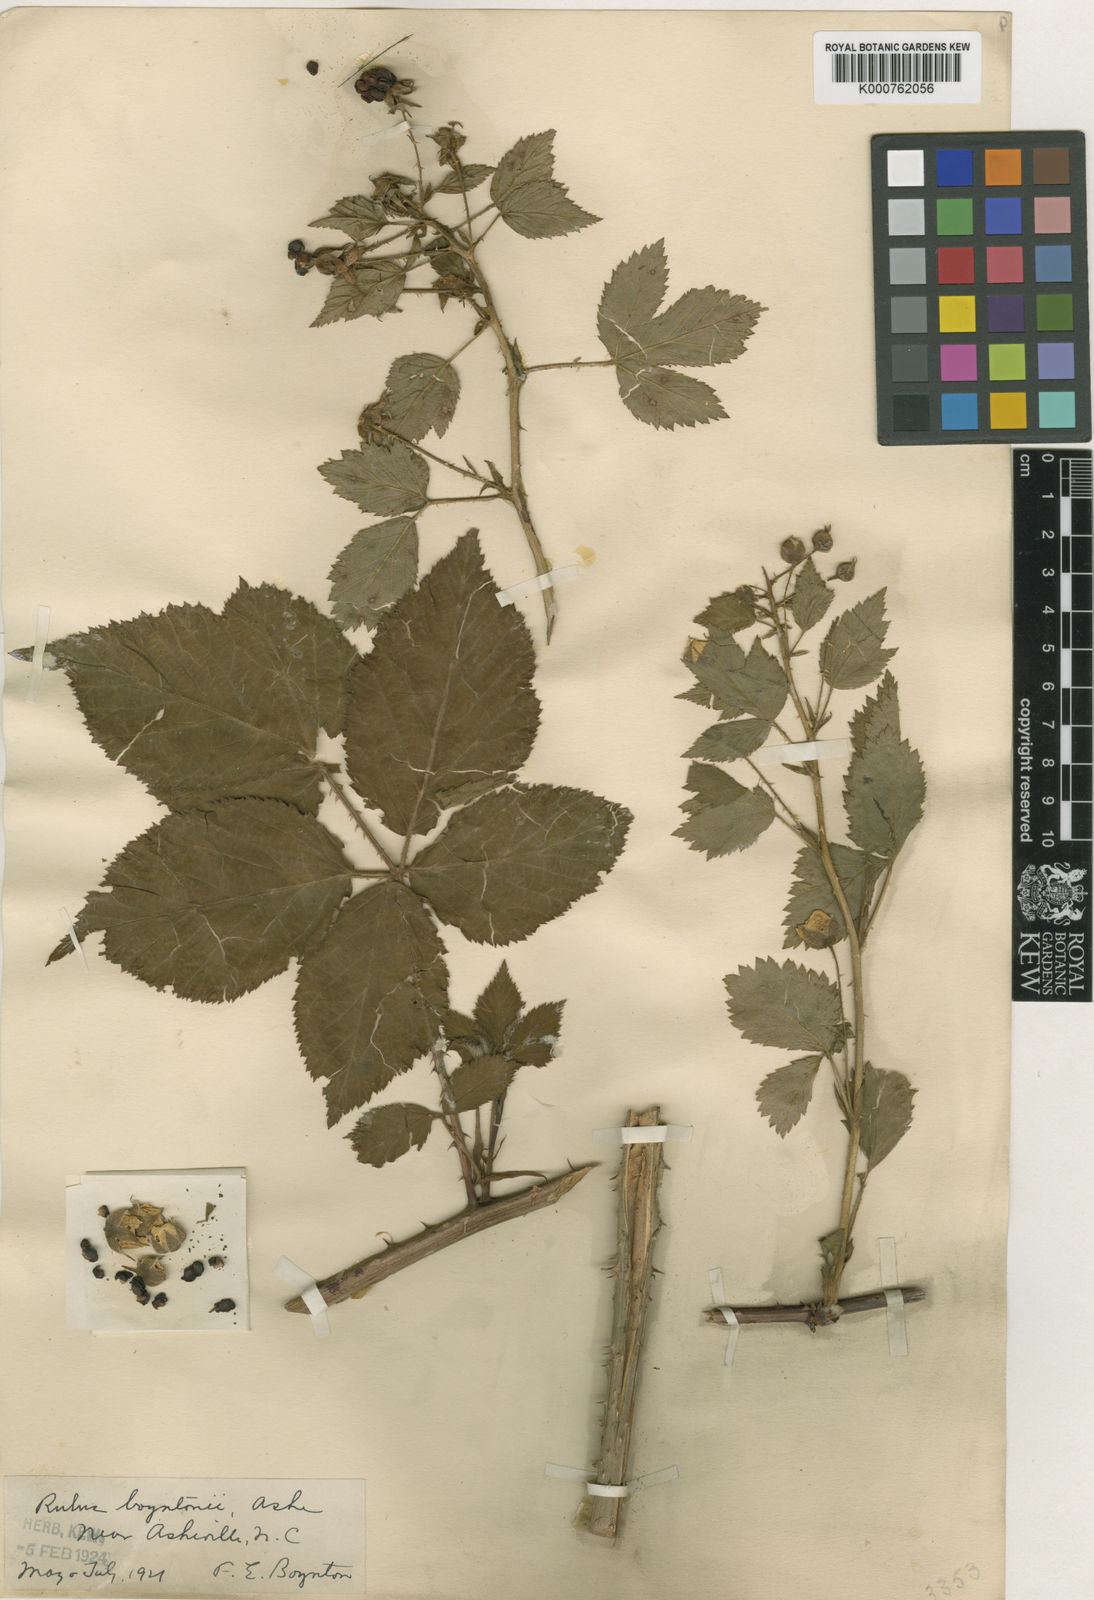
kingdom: Plantae
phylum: Tracheophyta
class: Magnoliopsida
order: Rosales
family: Rosaceae
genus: Rubus
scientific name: Rubus boyntonii
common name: Boynton's dewberry
